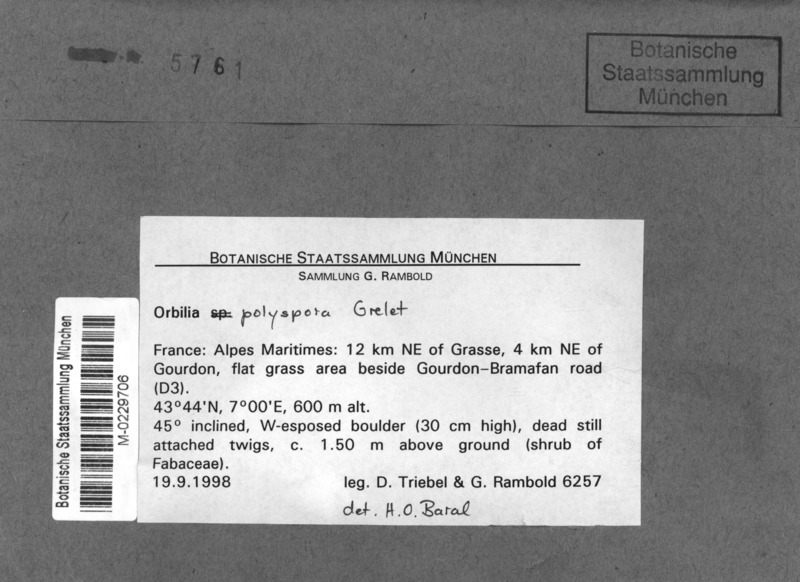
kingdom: Fungi
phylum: Ascomycota
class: Orbiliomycetes
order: Orbiliales
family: Orbiliaceae
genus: Orbilia
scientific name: Orbilia polyspora
